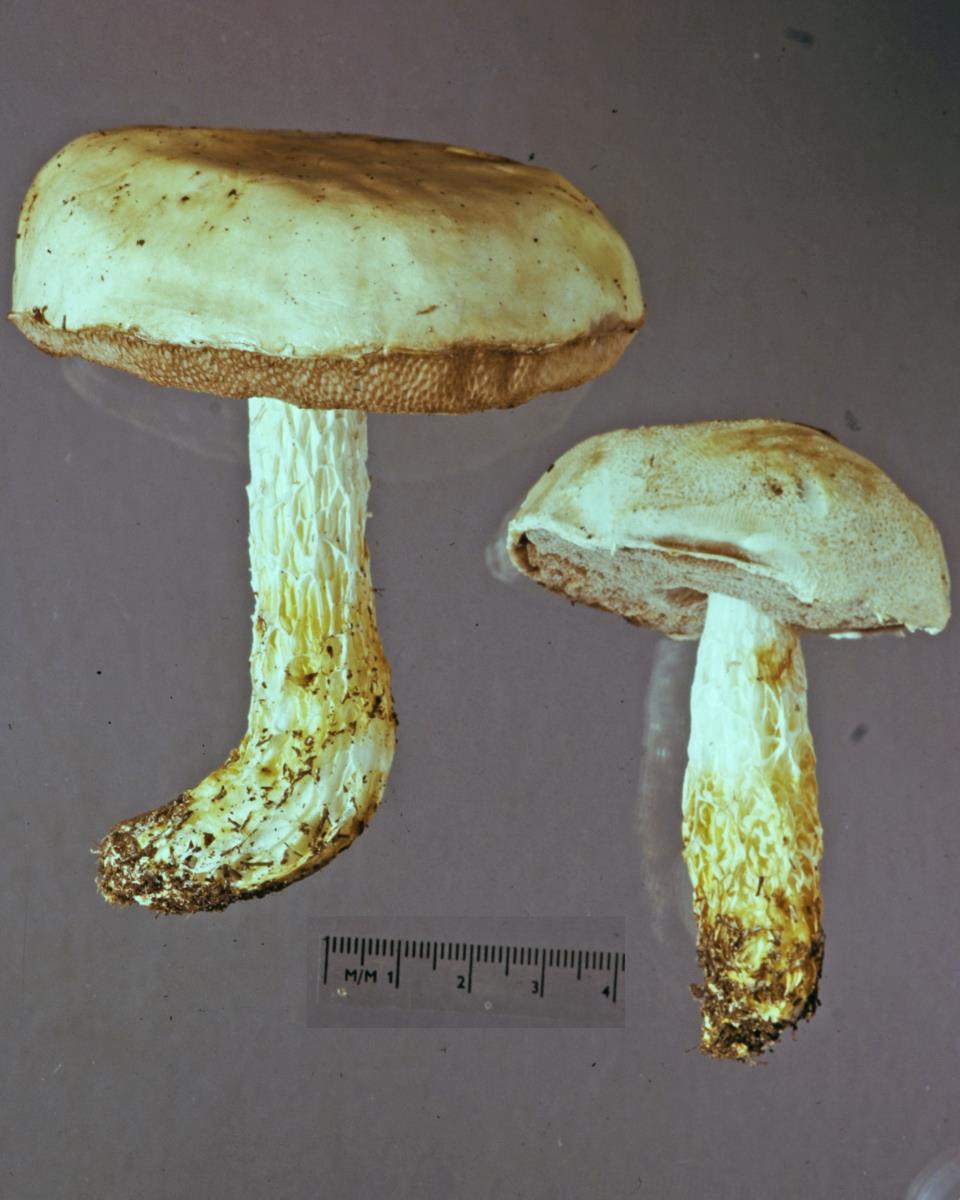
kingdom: Fungi
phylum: Basidiomycota
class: Agaricomycetes
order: Boletales
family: Boletaceae
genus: Fistulinella
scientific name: Fistulinella nivea
